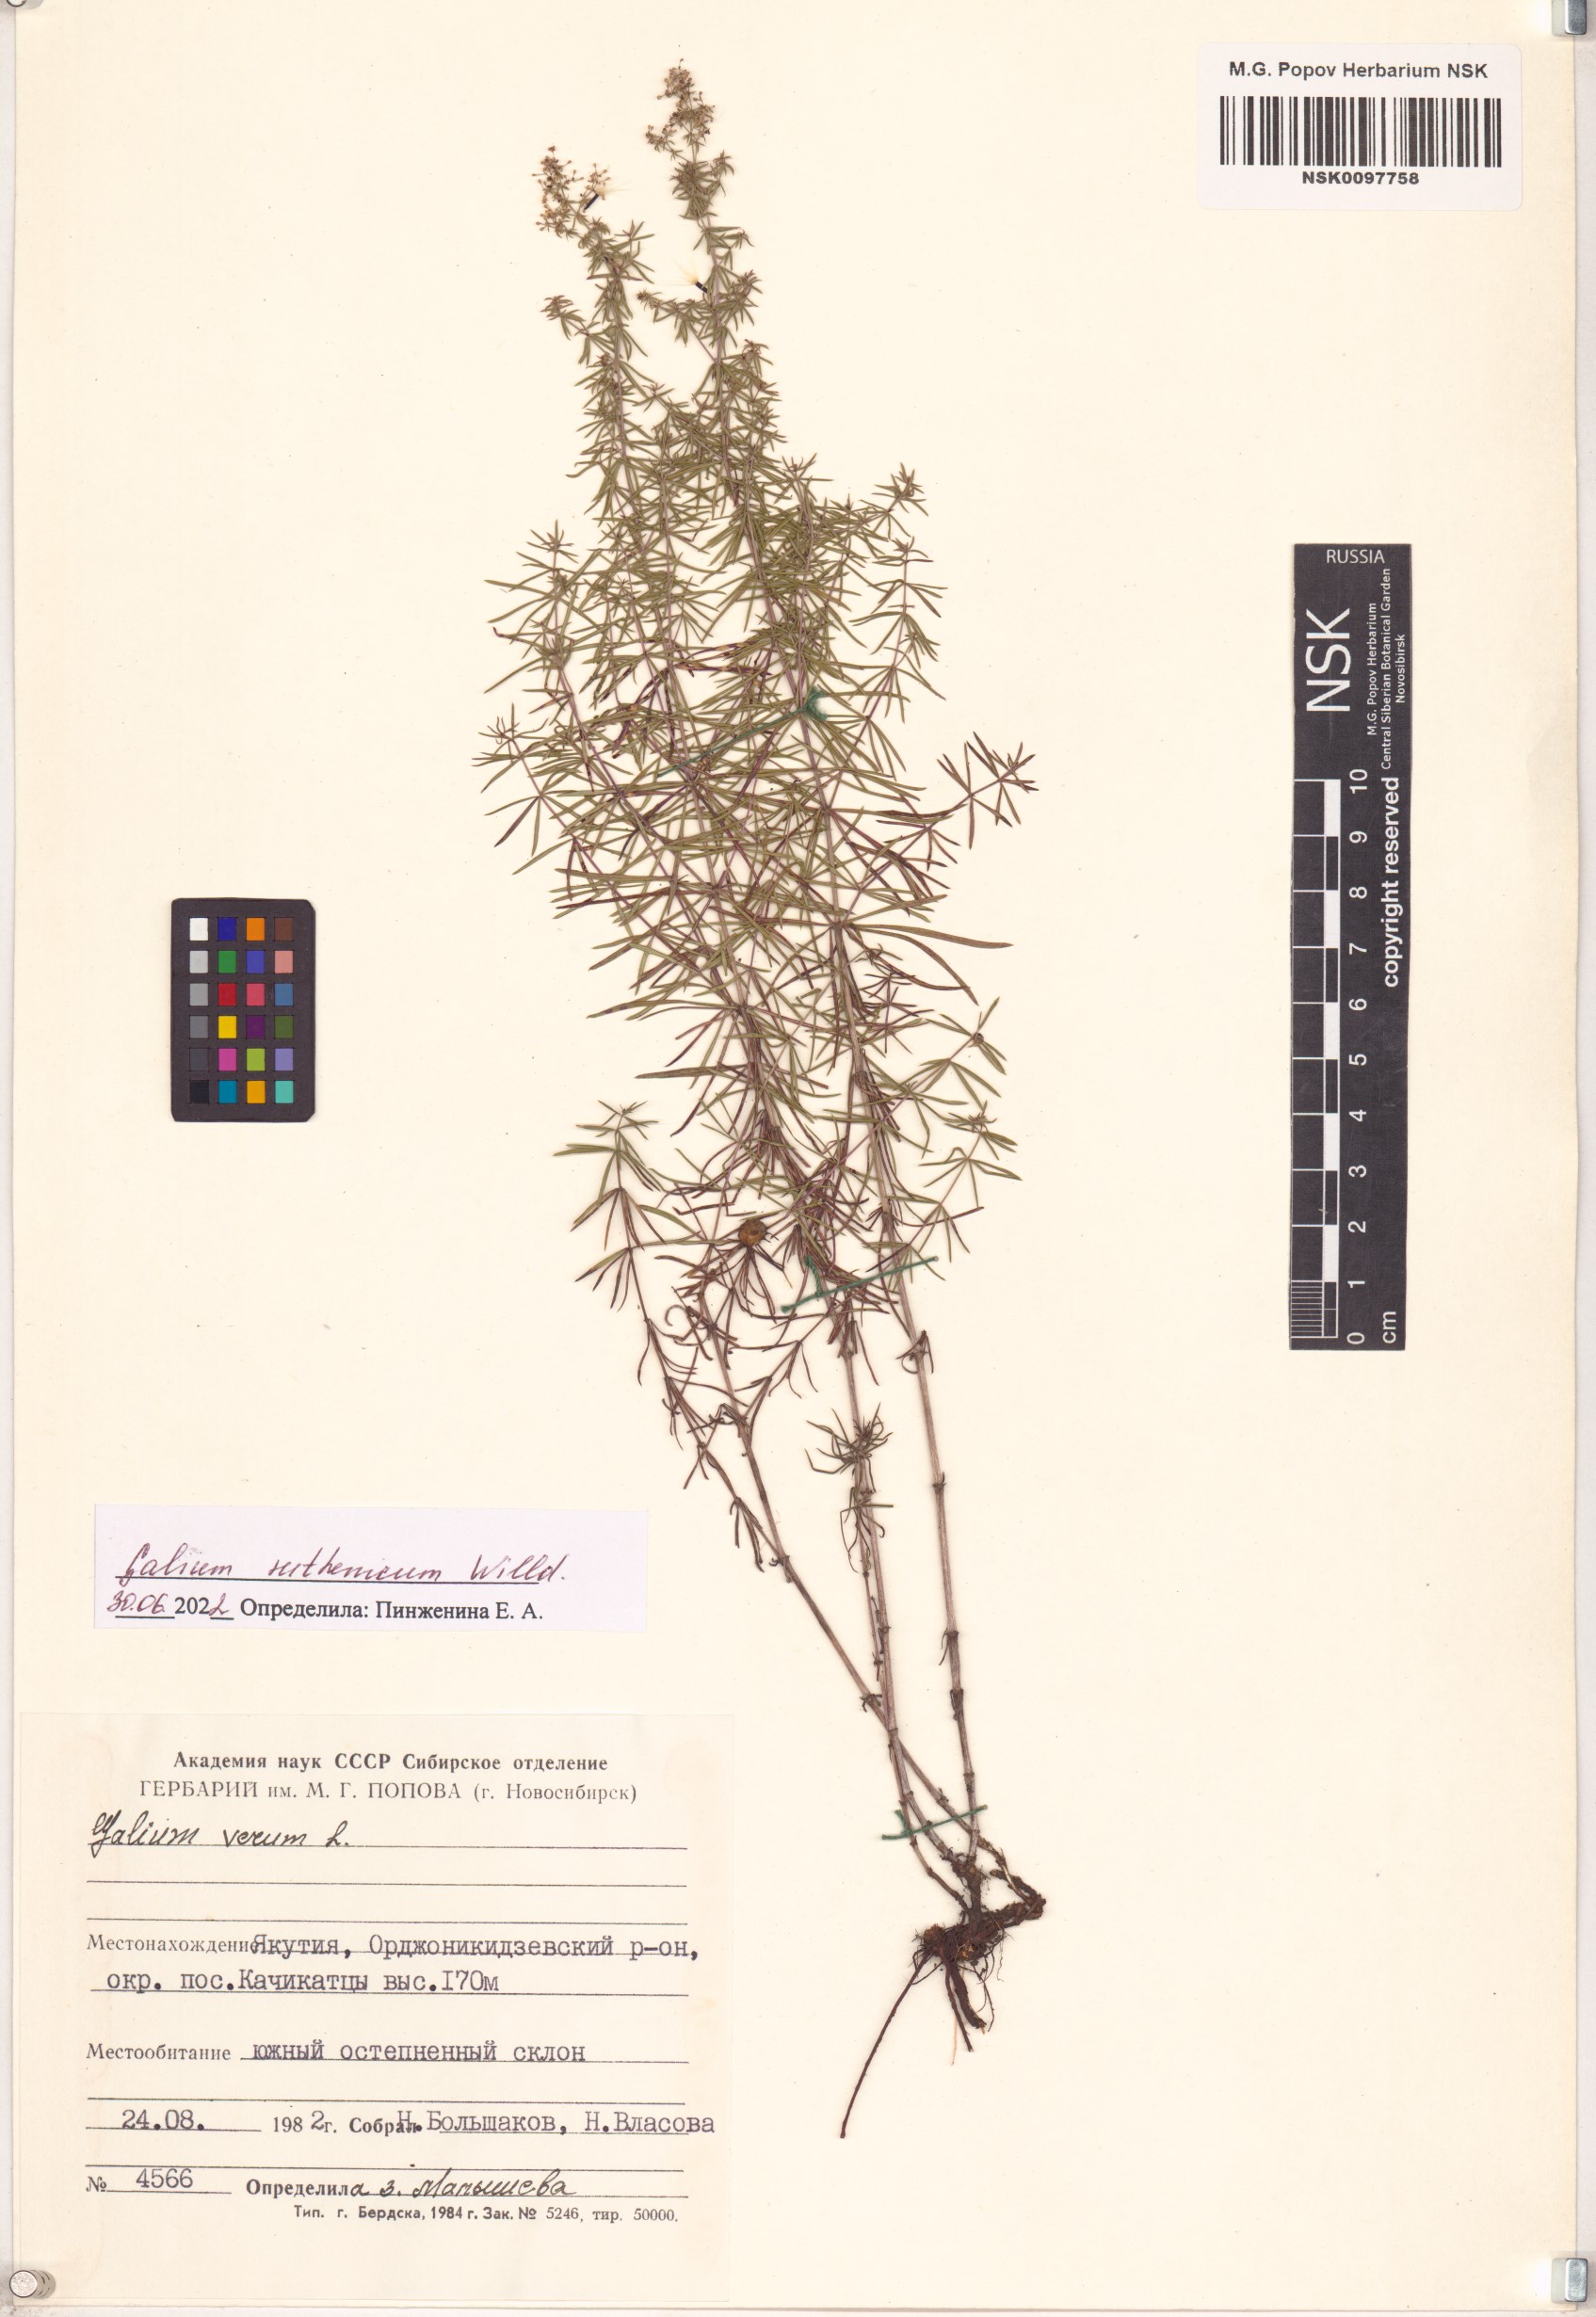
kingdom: Plantae
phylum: Tracheophyta
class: Magnoliopsida
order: Gentianales
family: Rubiaceae
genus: Galium
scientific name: Galium verum
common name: Lady's bedstraw
